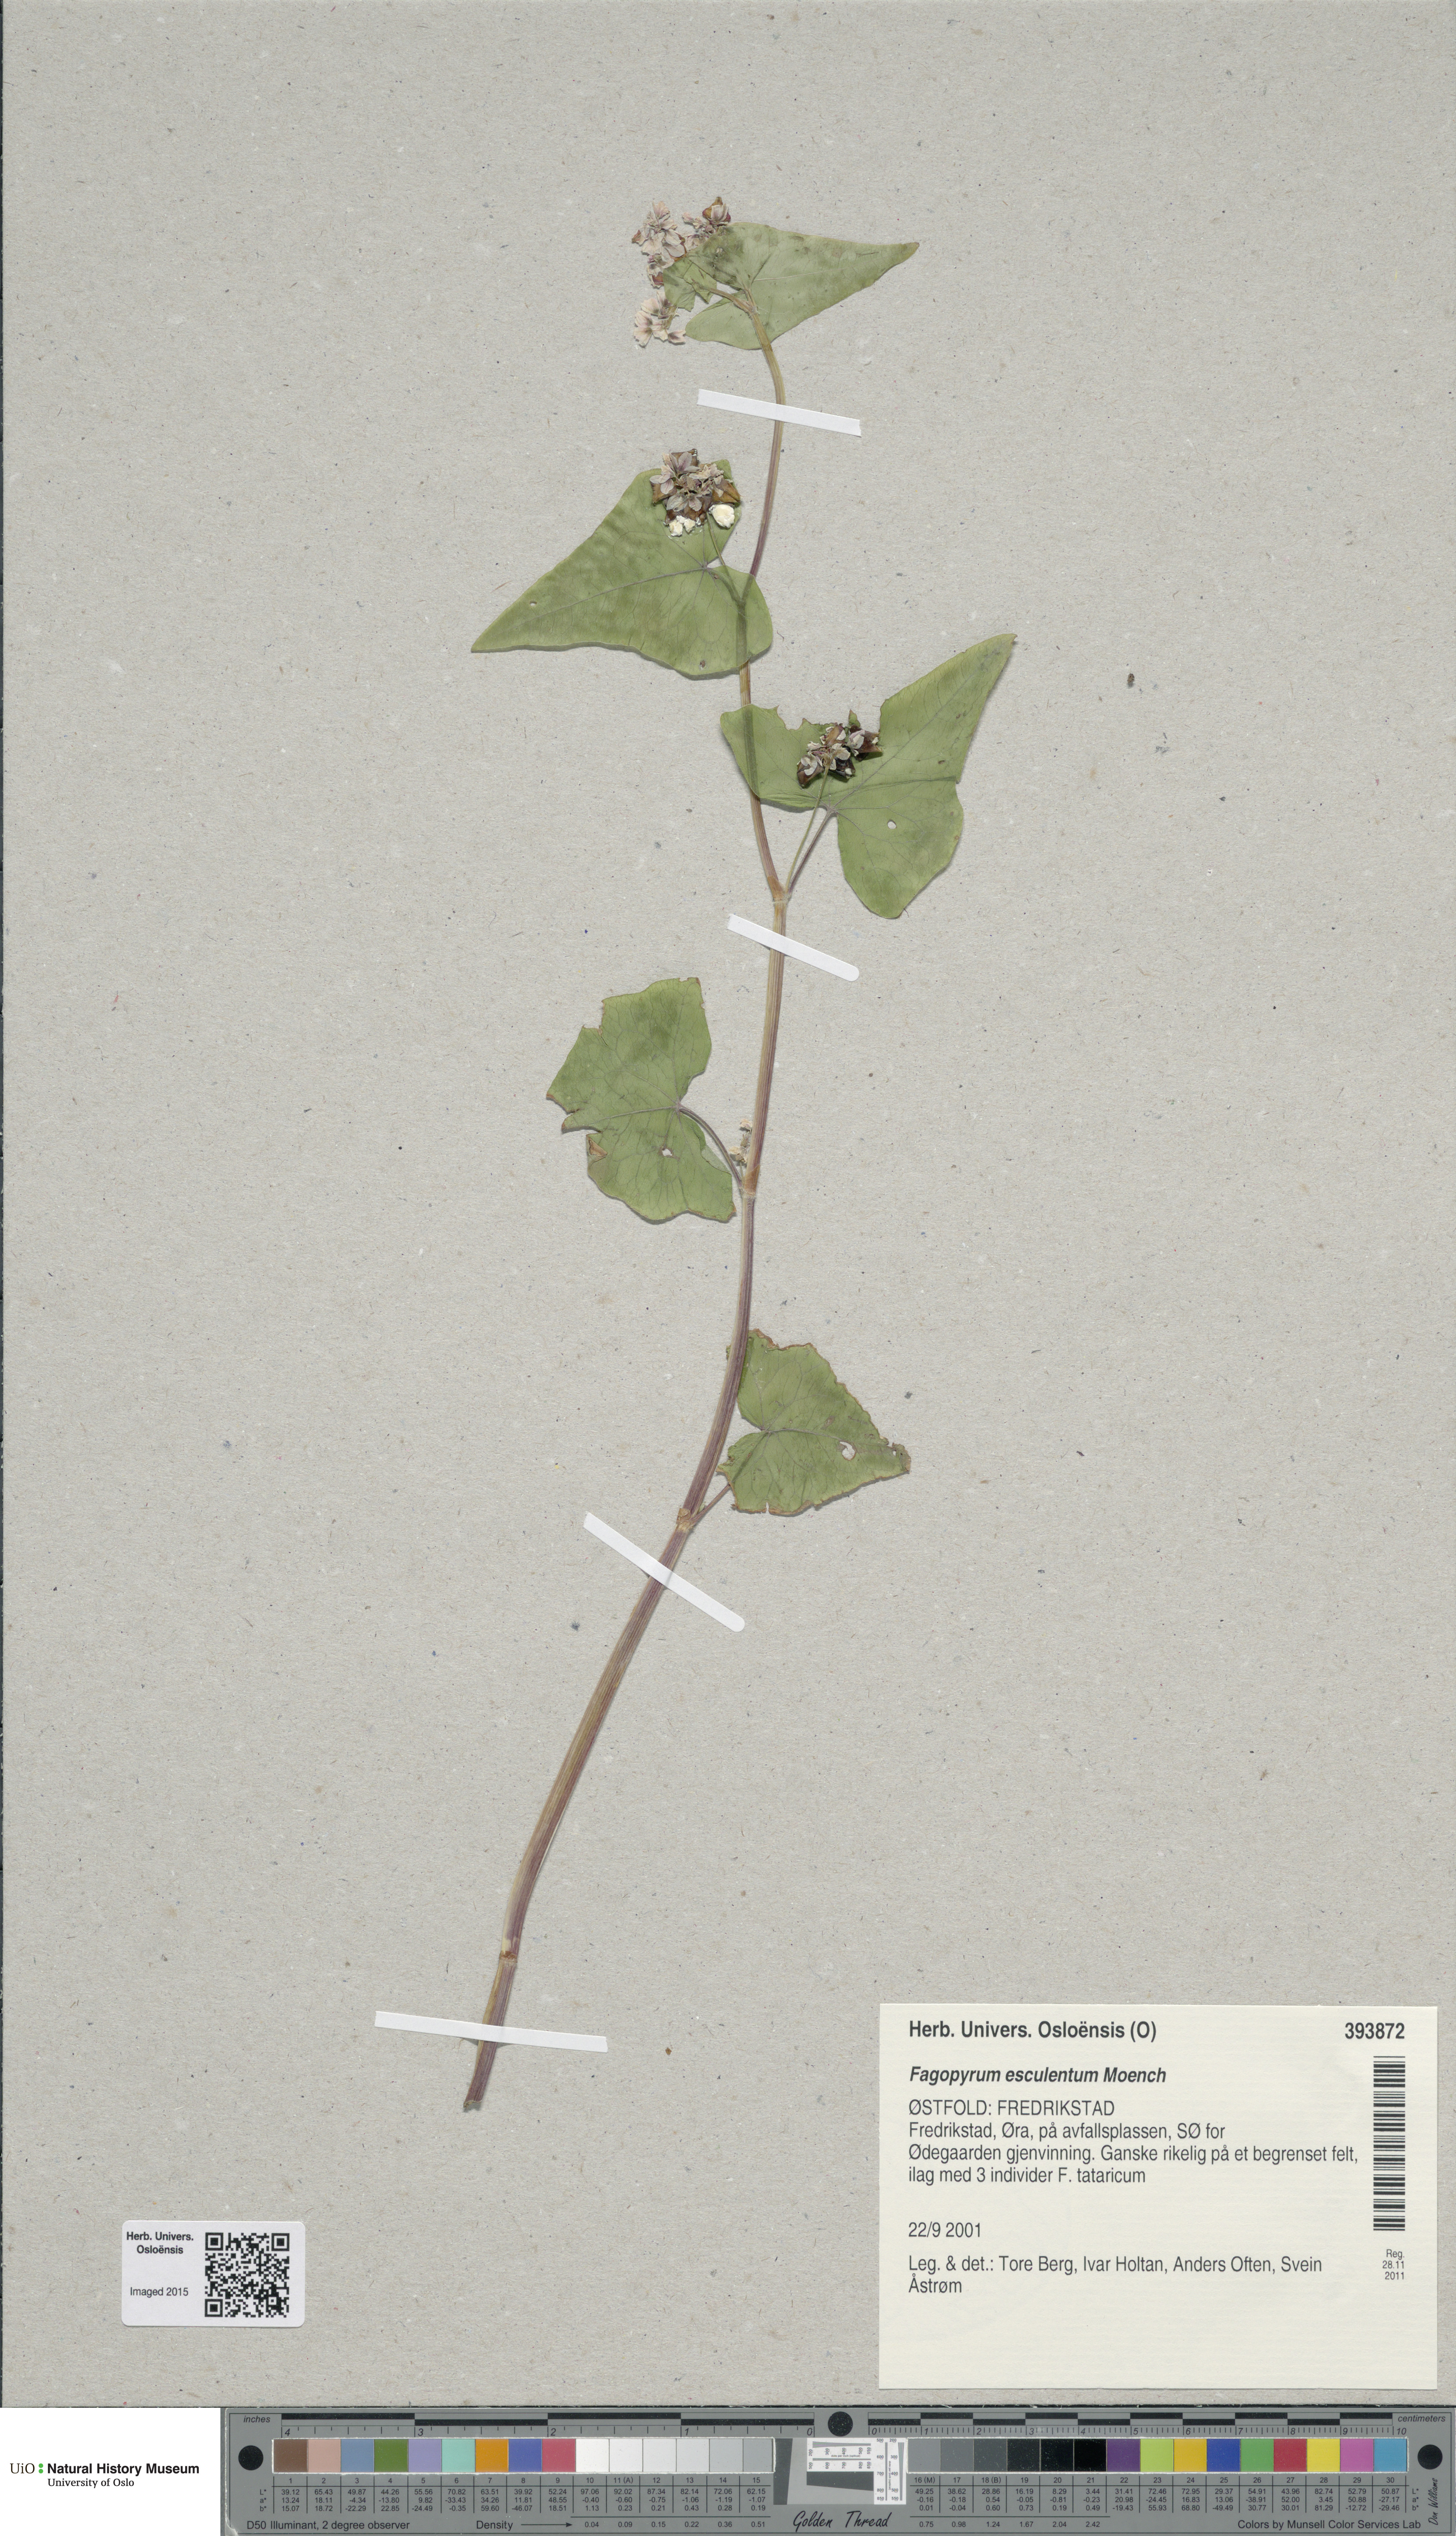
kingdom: Plantae
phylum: Tracheophyta
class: Magnoliopsida
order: Caryophyllales
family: Polygonaceae
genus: Fagopyrum
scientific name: Fagopyrum esculentum
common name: Buckwheat
